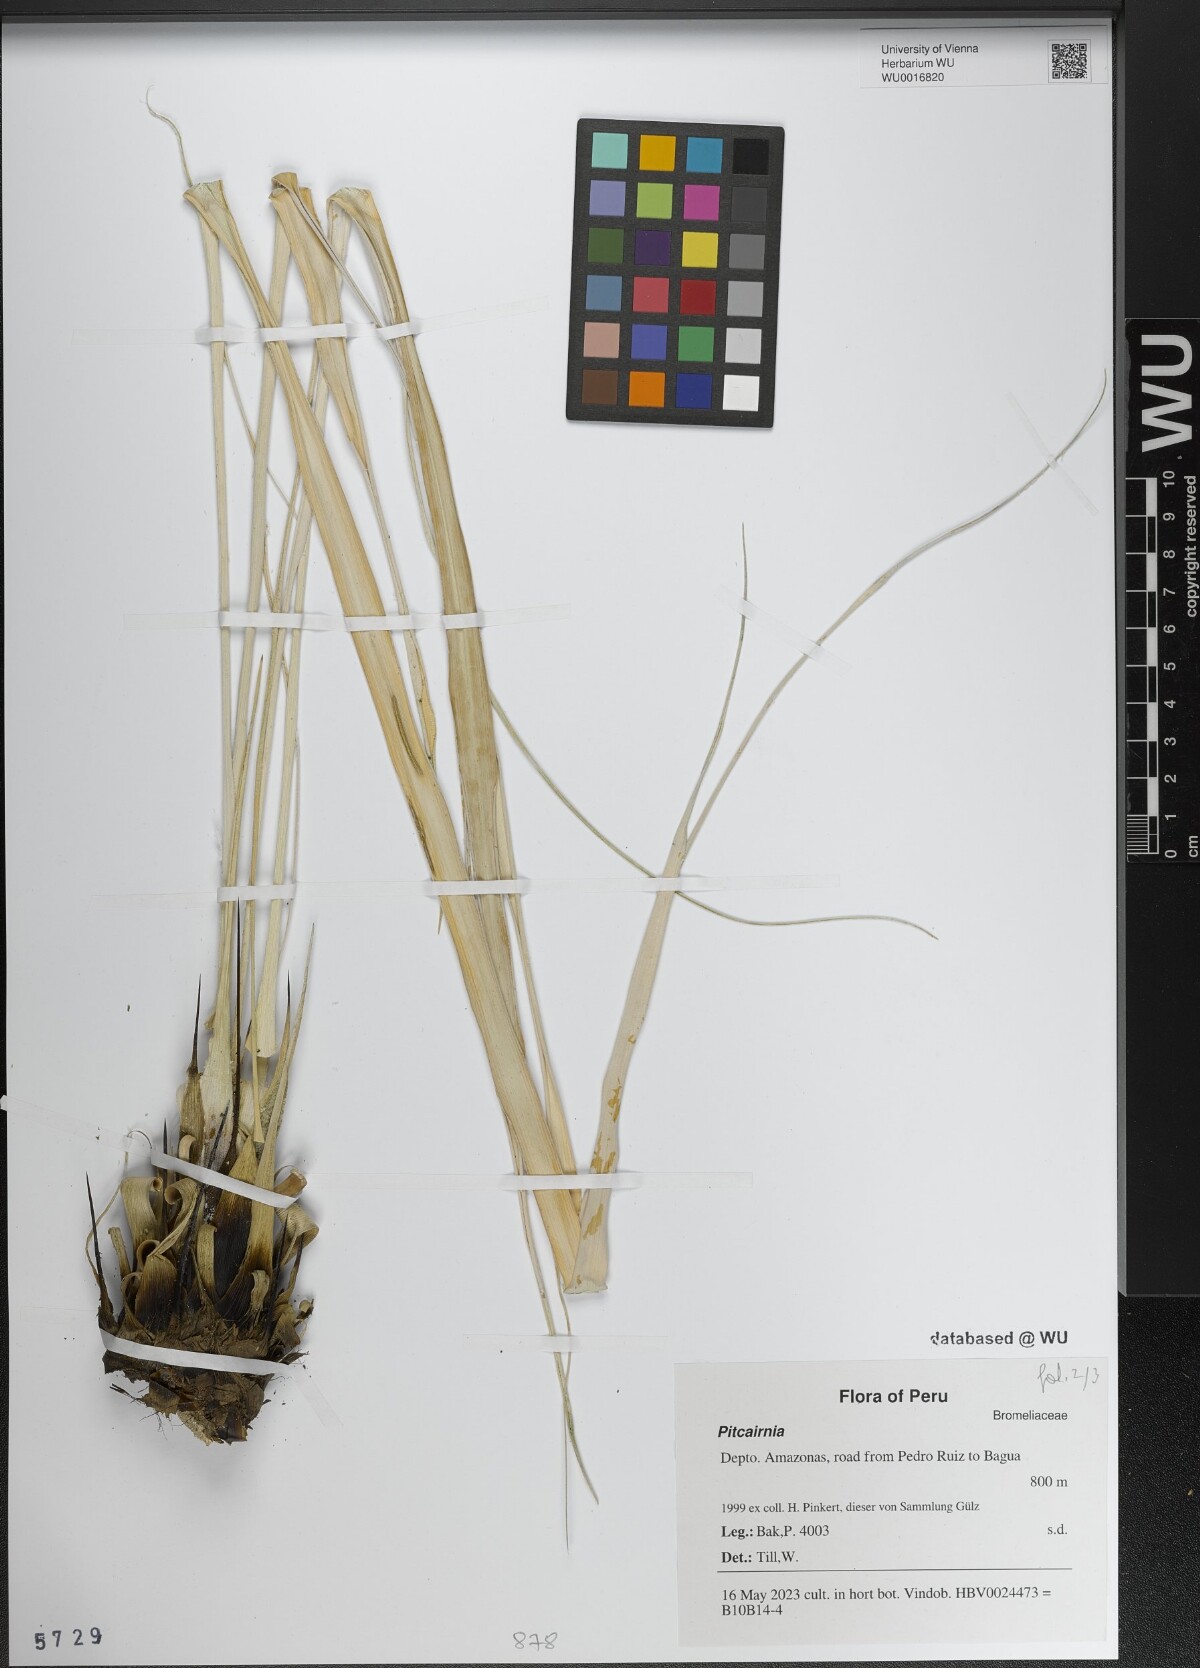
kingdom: Plantae
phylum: Tracheophyta
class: Liliopsida
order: Poales
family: Bromeliaceae
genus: Pitcairnia
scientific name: Pitcairnia
